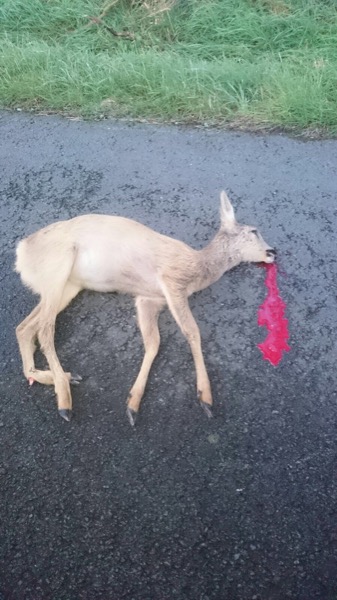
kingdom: Animalia
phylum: Chordata
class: Mammalia
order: Artiodactyla
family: Cervidae
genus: Capreolus
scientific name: Capreolus capreolus
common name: Western roe deer
